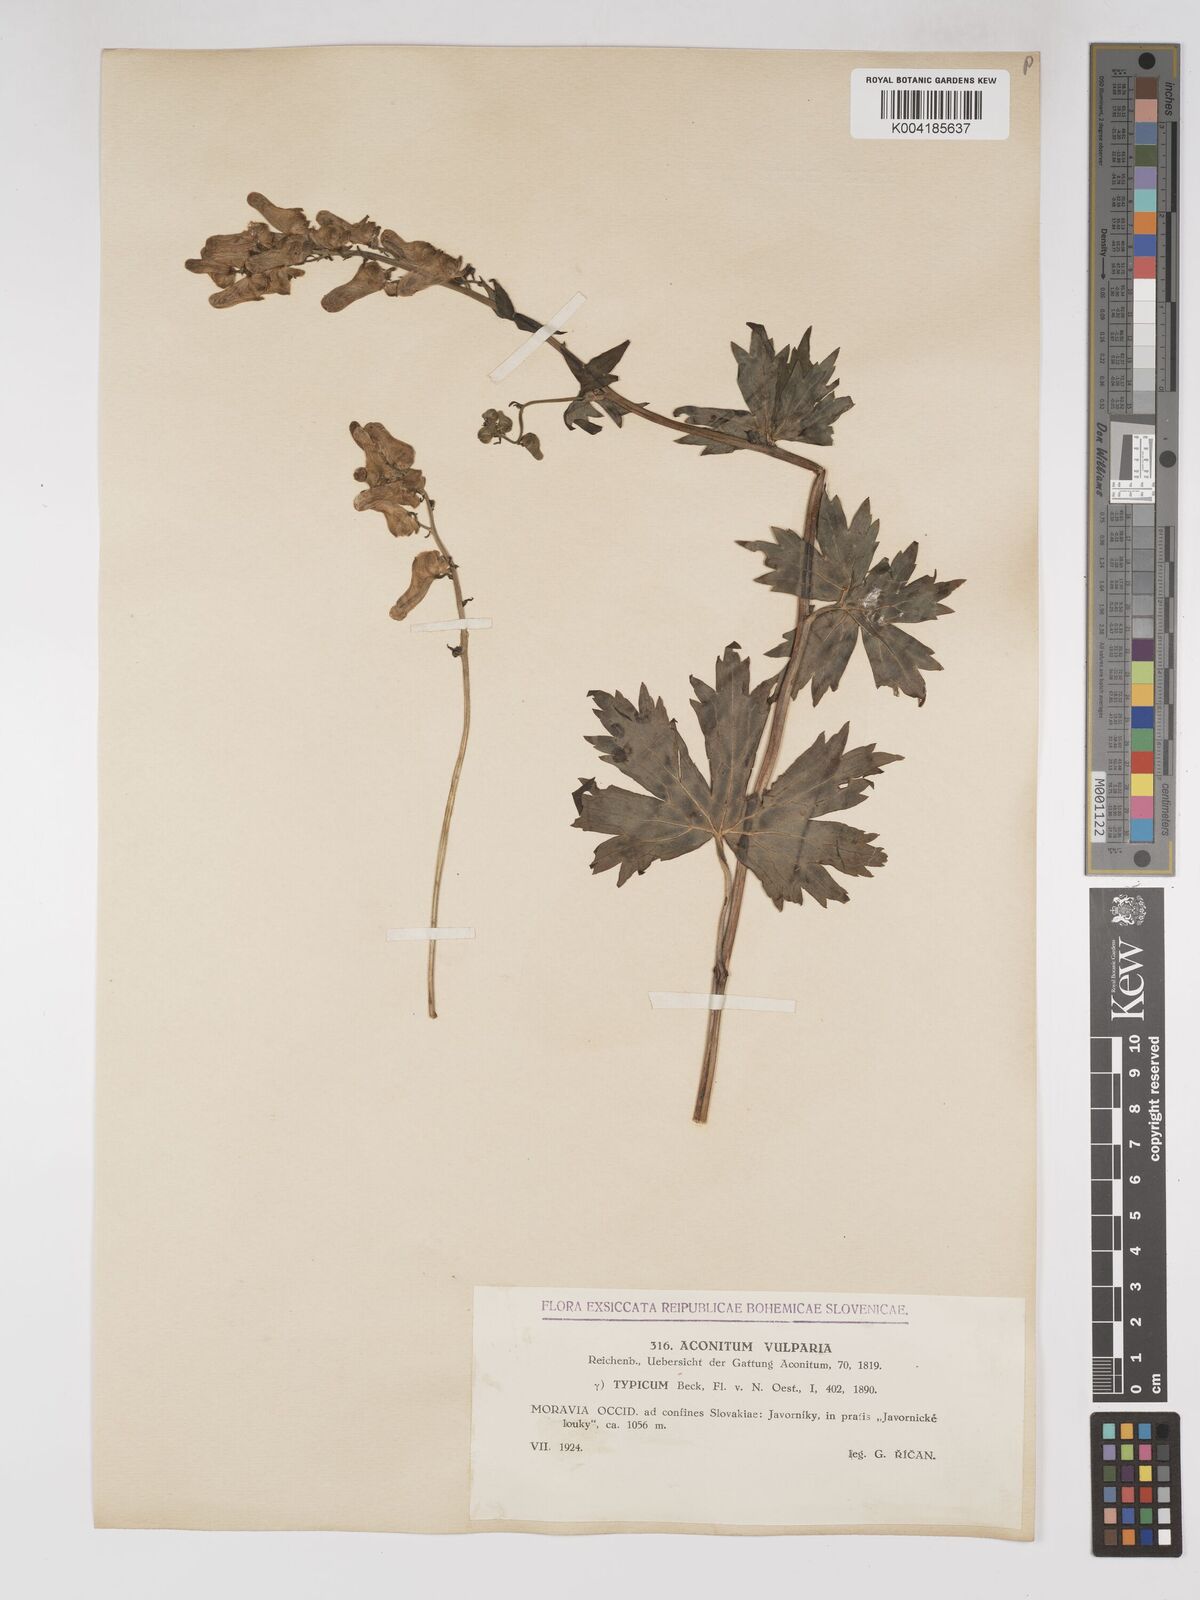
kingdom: Plantae
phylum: Tracheophyta
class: Magnoliopsida
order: Ranunculales
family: Ranunculaceae
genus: Aconitum
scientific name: Aconitum lycoctonum
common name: Wolf's-bane
